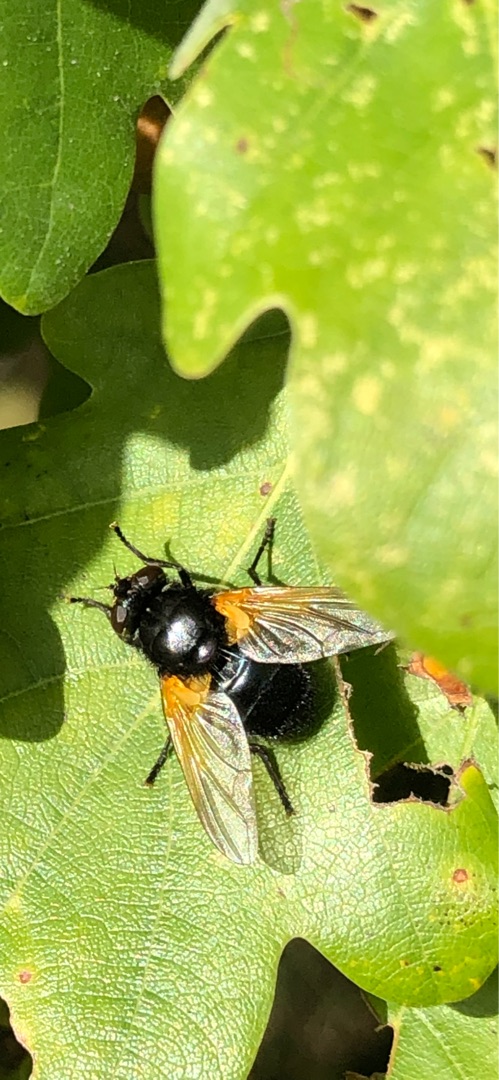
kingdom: Animalia
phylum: Arthropoda
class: Insecta
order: Diptera
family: Muscidae
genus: Mesembrina
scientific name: Mesembrina meridiana
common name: Gulvinget flue
